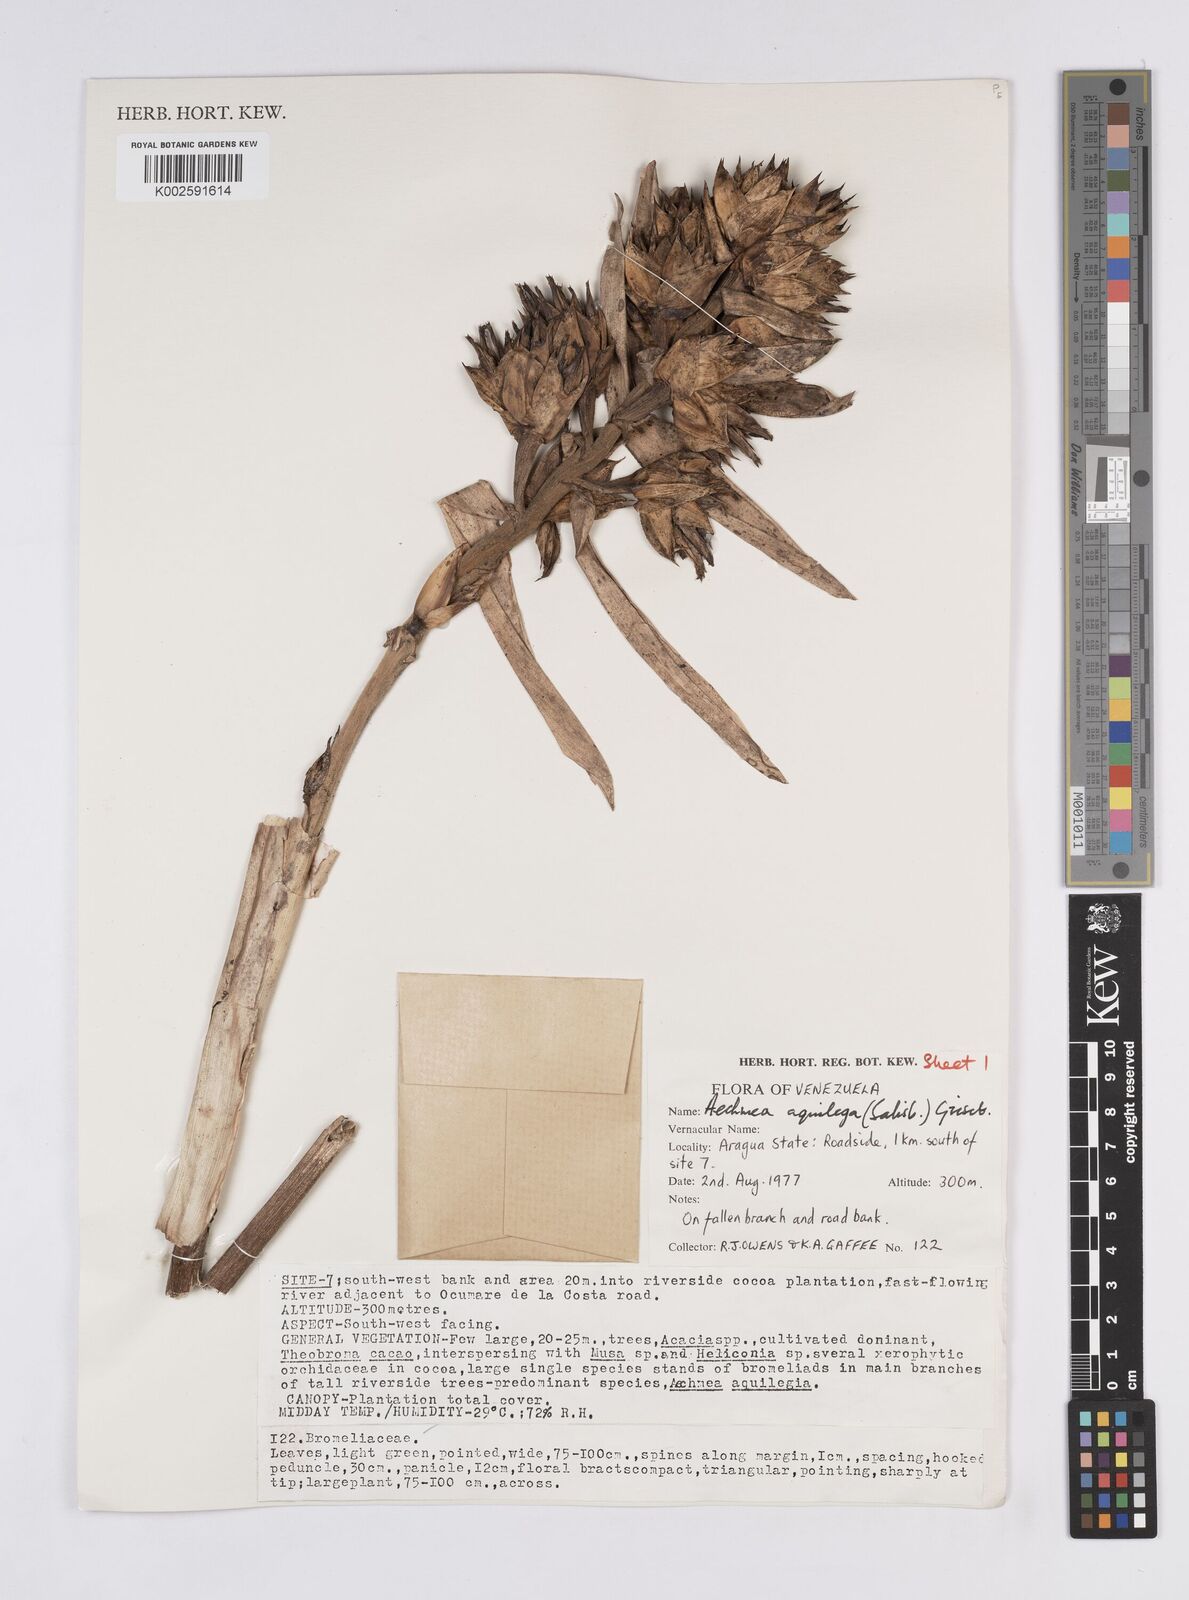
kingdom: Plantae
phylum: Tracheophyta
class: Liliopsida
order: Poales
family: Bromeliaceae
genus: Aechmea
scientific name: Aechmea aquilega
